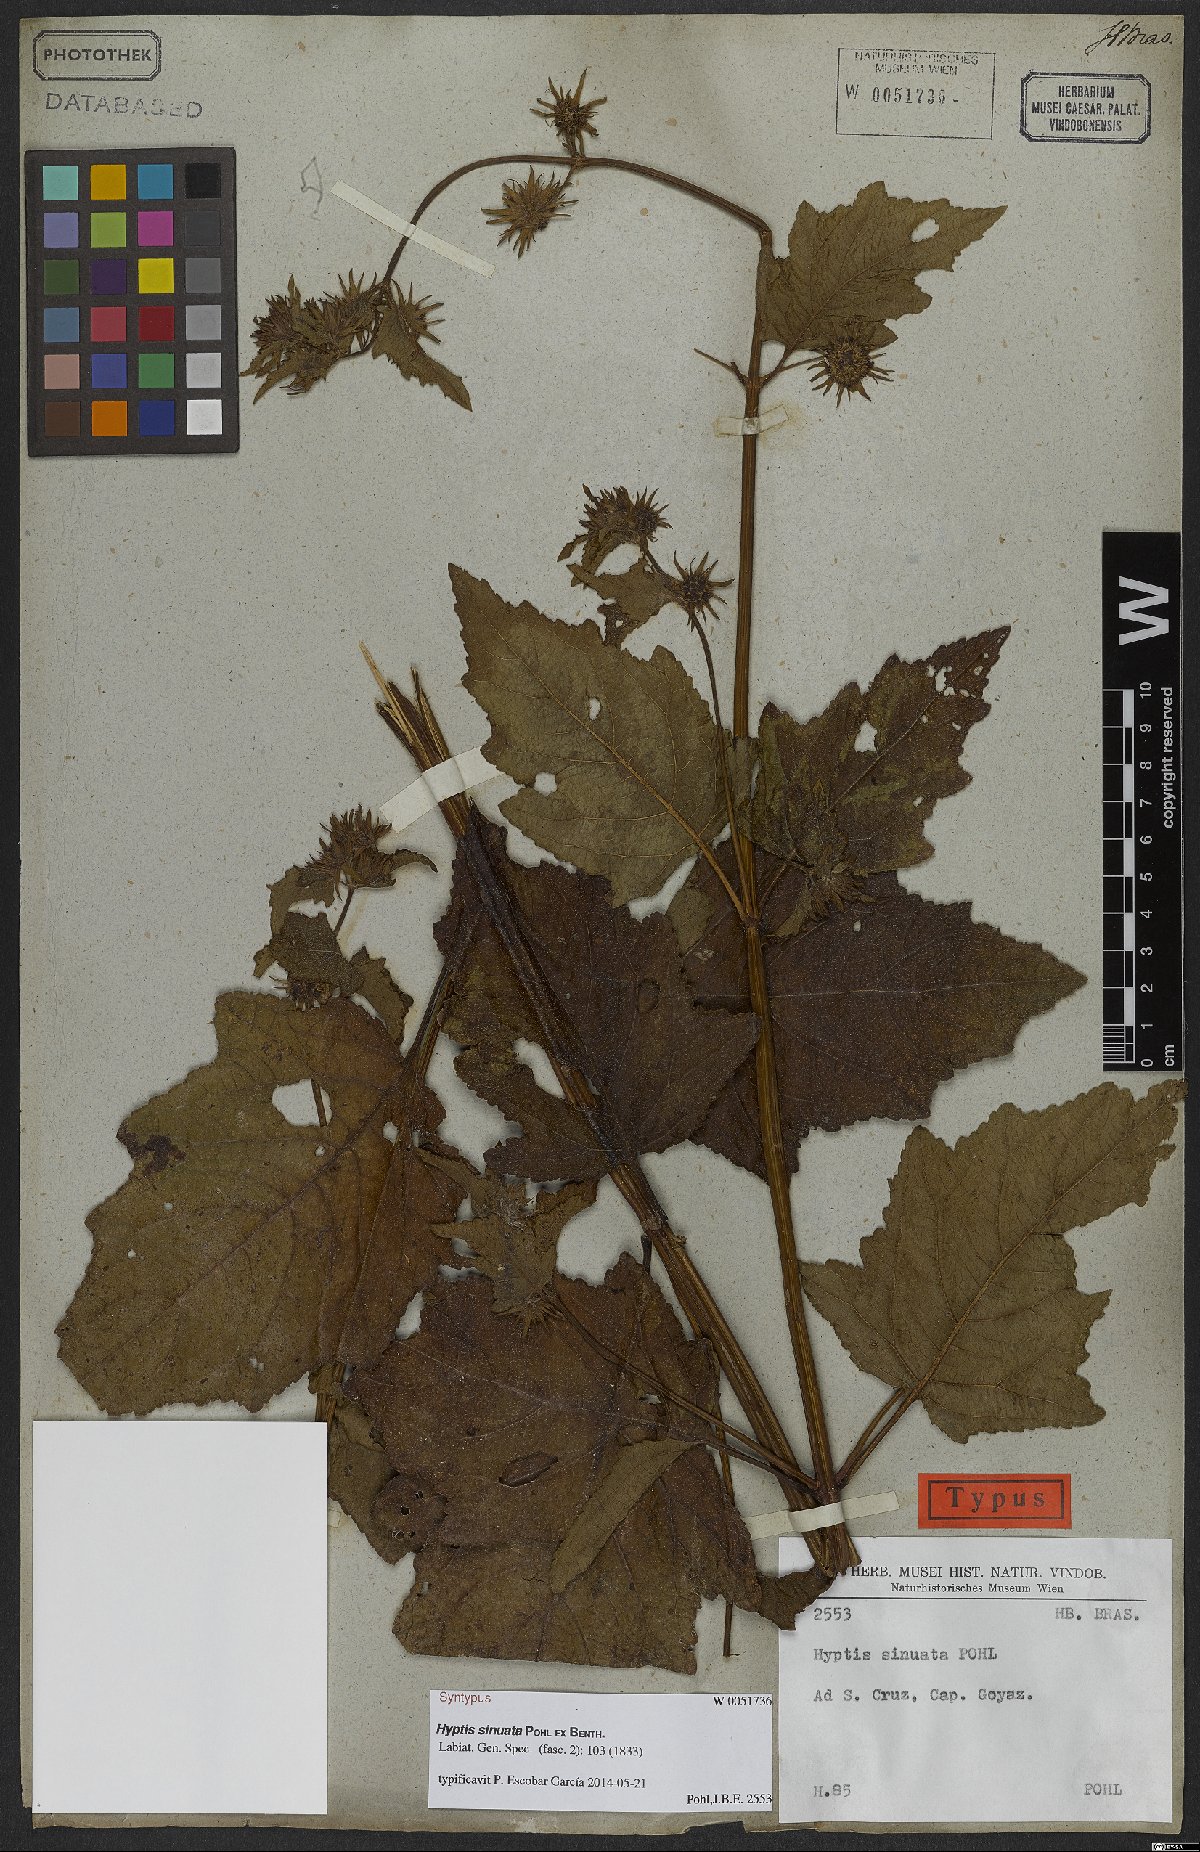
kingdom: Plantae
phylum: Tracheophyta
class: Magnoliopsida
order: Lamiales
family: Lamiaceae
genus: Hyptis
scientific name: Hyptis sinuata
